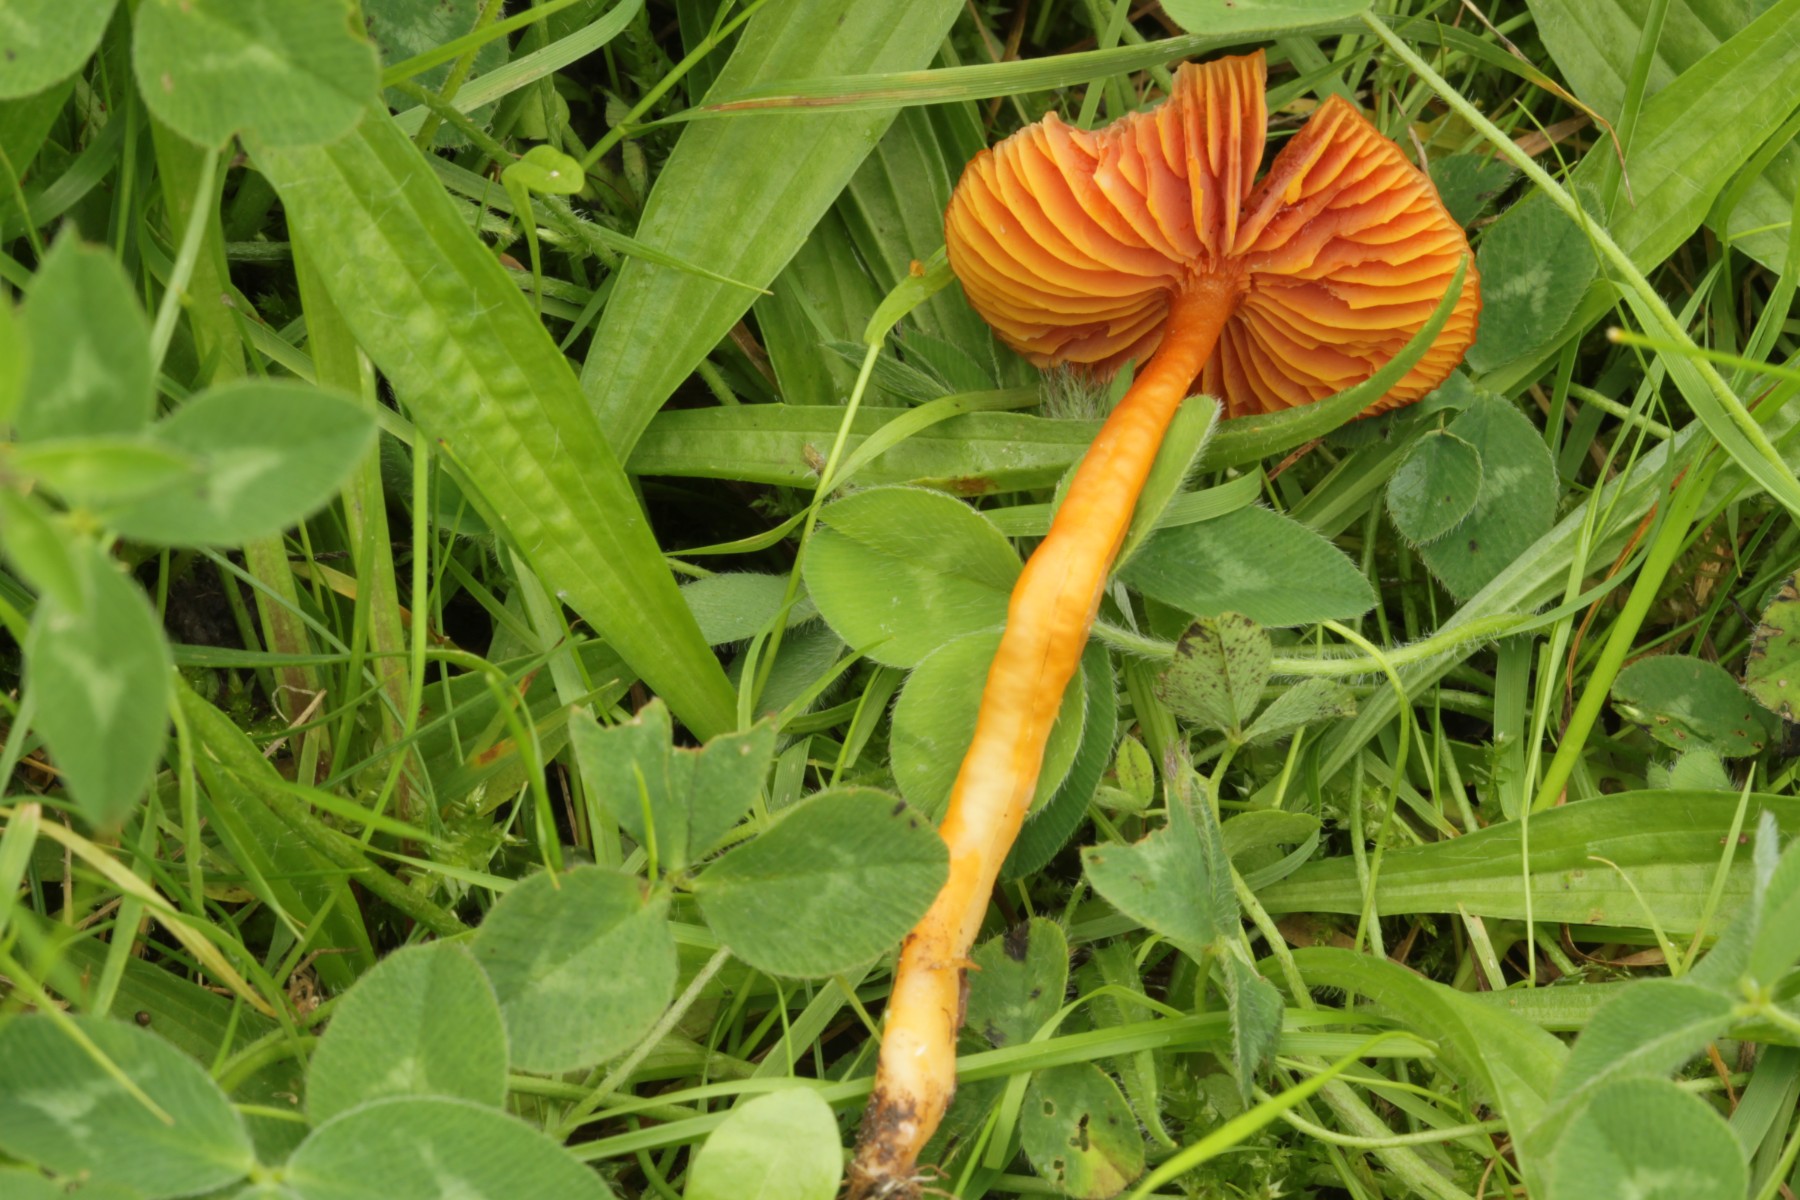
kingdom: Fungi
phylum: Basidiomycota
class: Agaricomycetes
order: Agaricales
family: Hygrophoraceae
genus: Gliophorus
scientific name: Gliophorus
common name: vokshat
